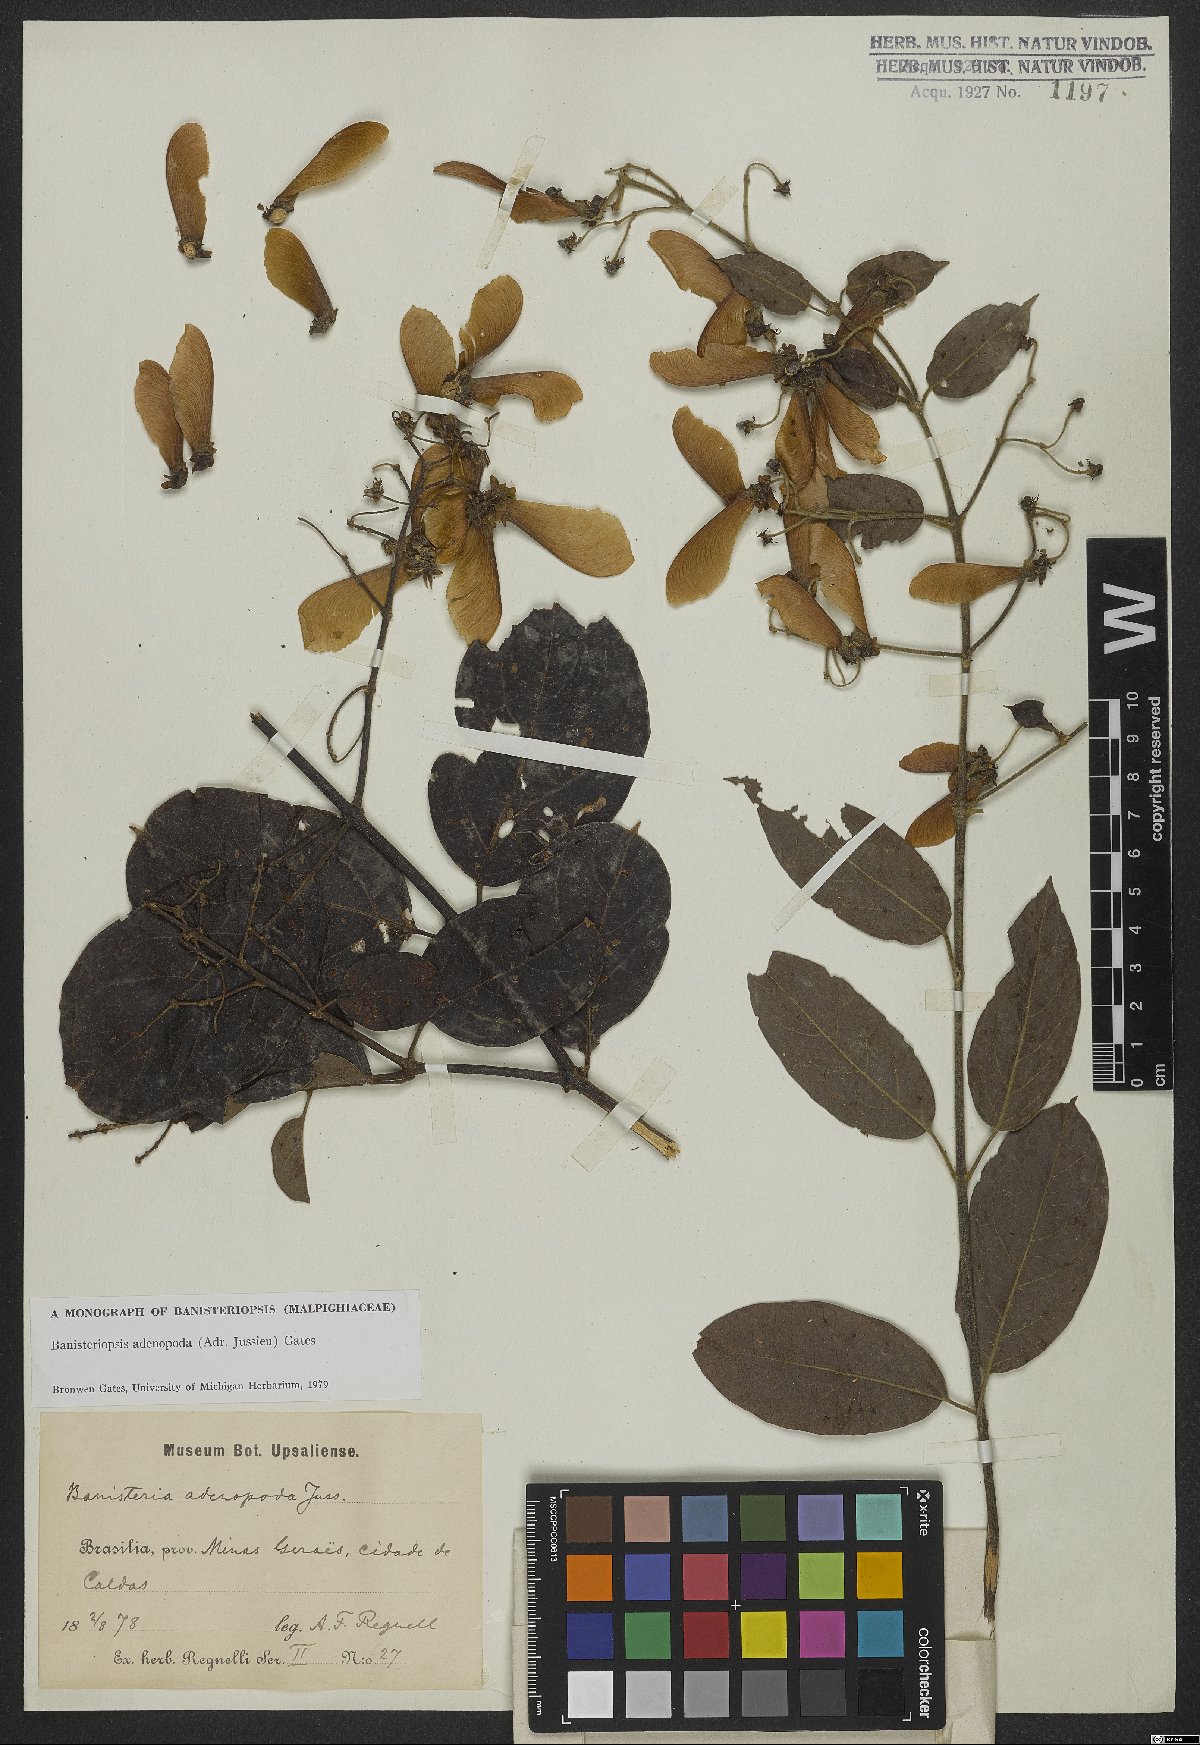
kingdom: Plantae
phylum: Tracheophyta
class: Magnoliopsida
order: Malpighiales
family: Malpighiaceae
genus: Banisteriopsis
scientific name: Banisteriopsis adenopoda
